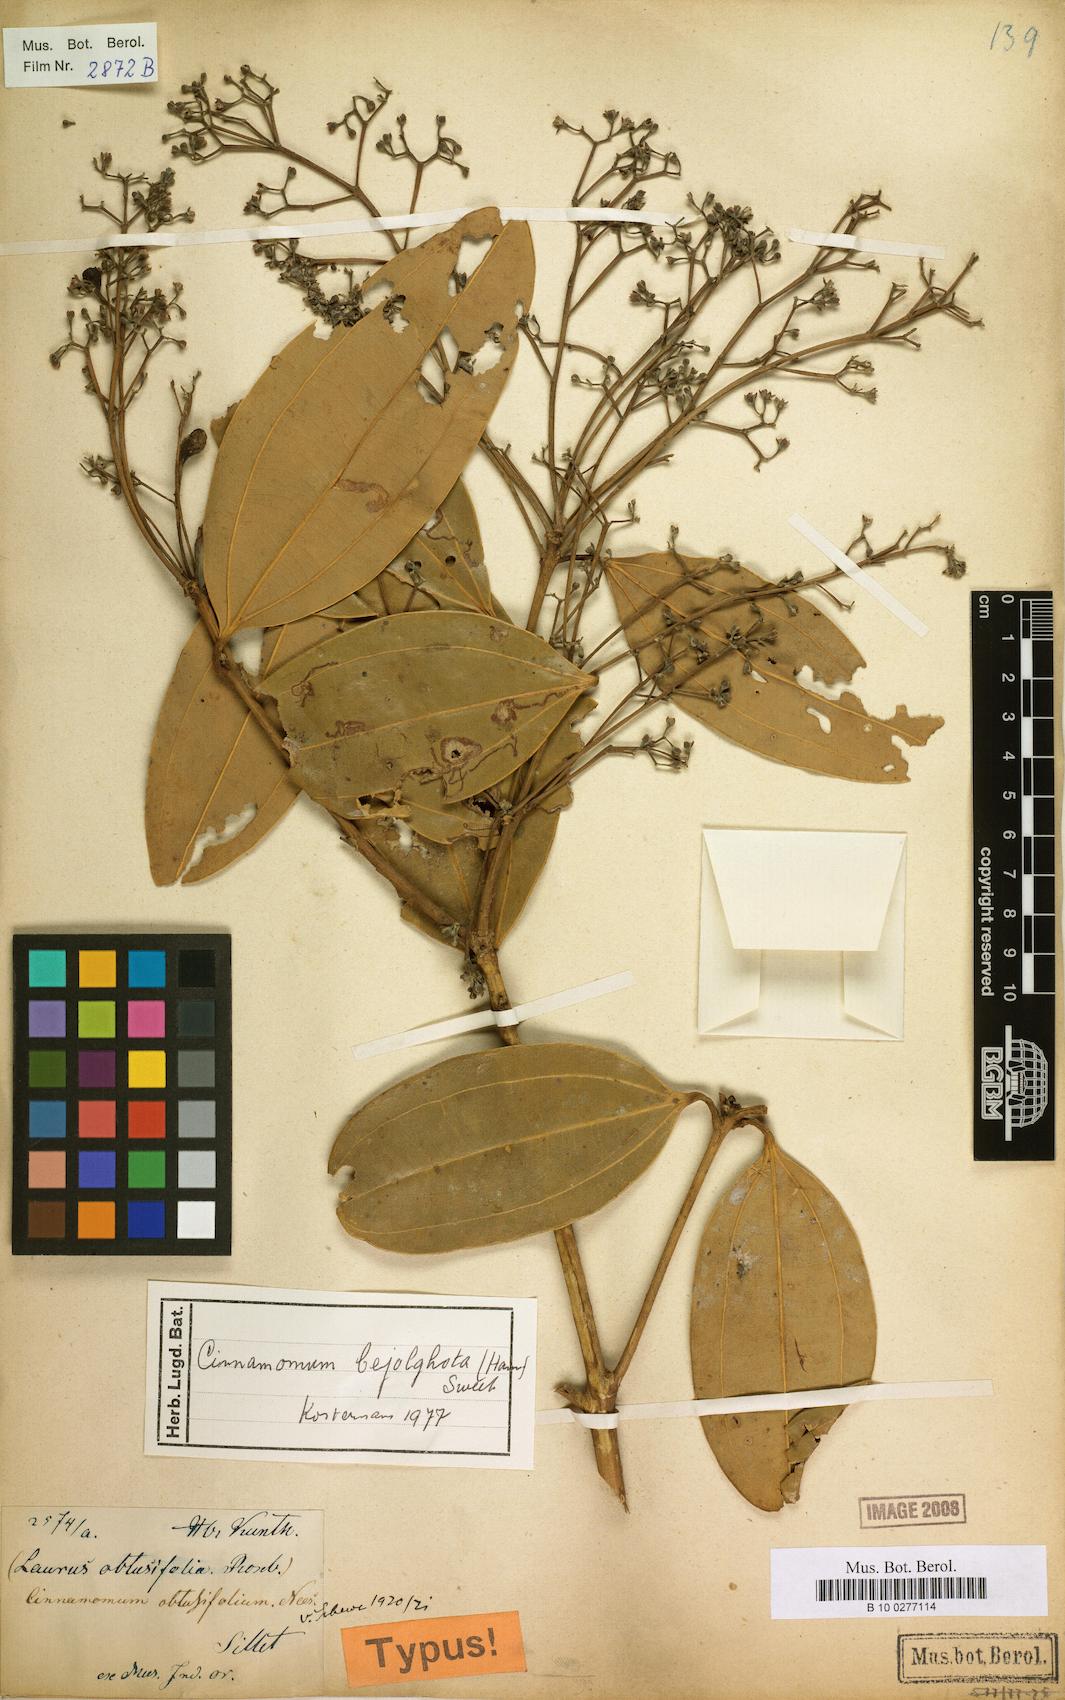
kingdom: Plantae
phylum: Tracheophyta
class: Magnoliopsida
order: Laurales
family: Lauraceae
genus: Cinnamomum
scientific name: Cinnamomum bejolghota
